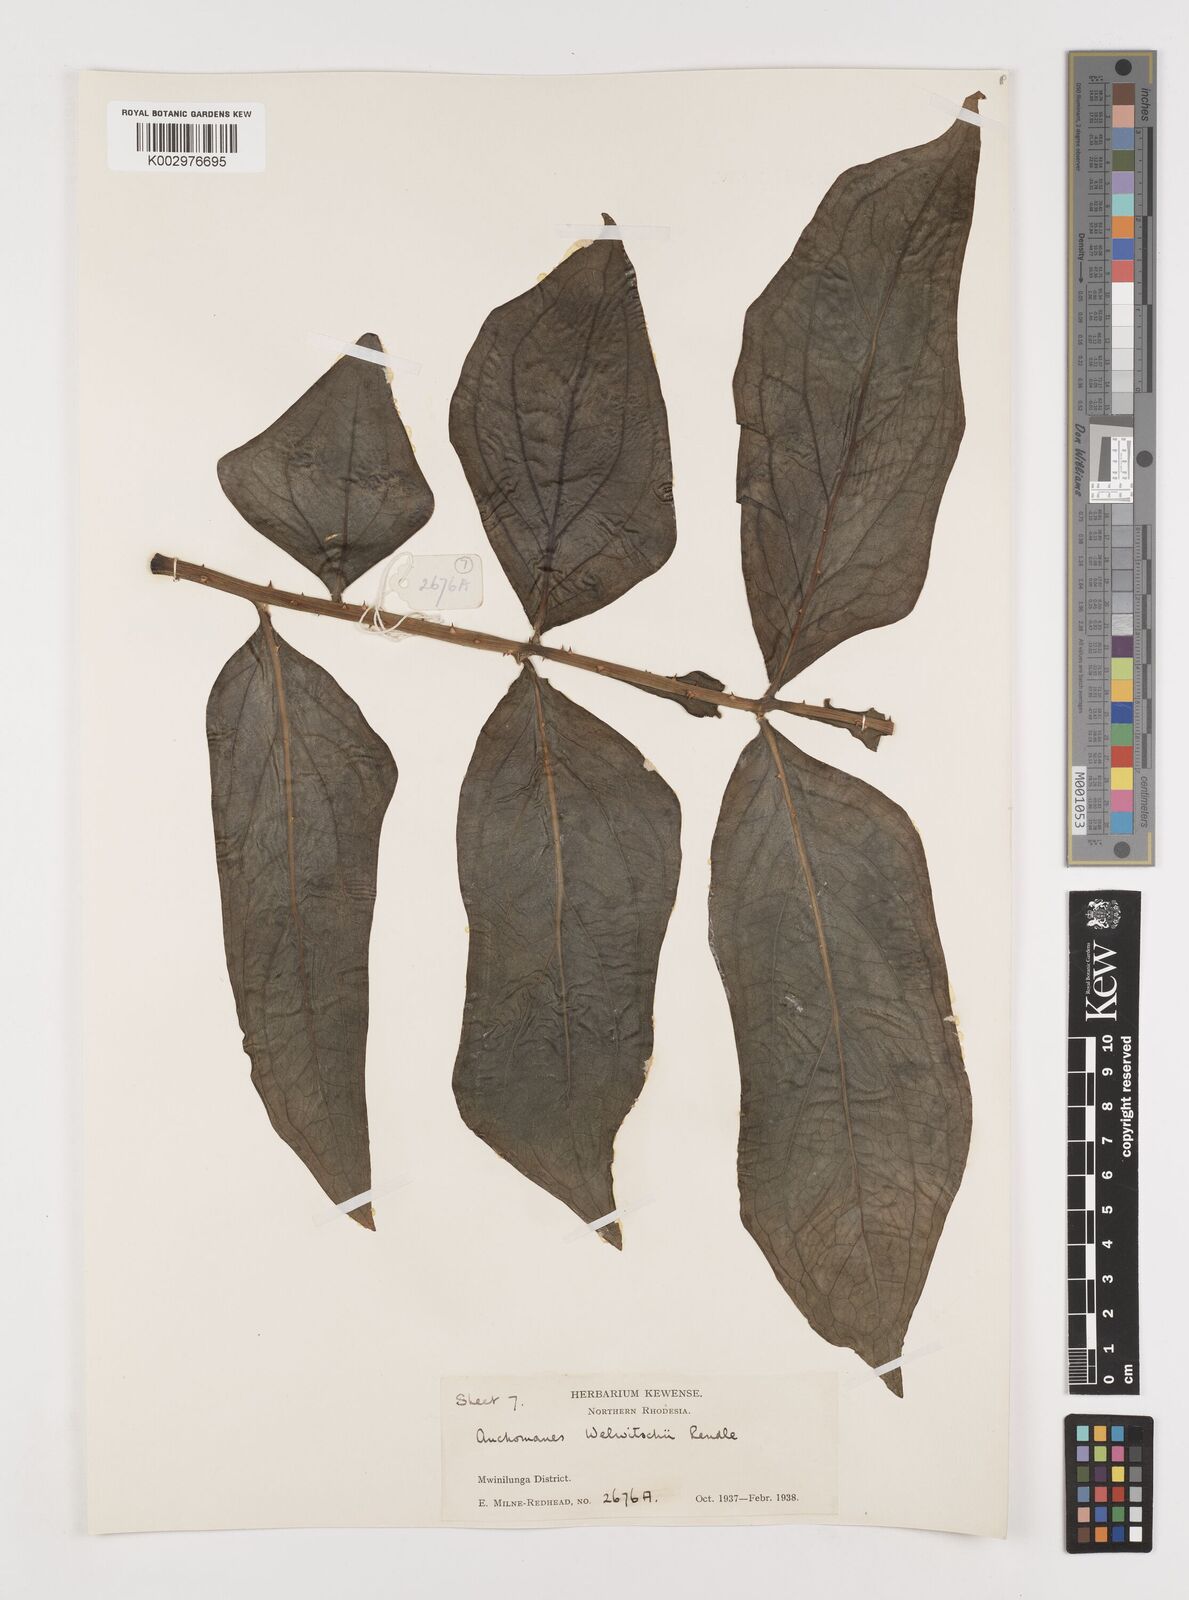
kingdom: Plantae
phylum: Tracheophyta
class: Liliopsida
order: Alismatales
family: Araceae
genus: Anchomanes
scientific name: Anchomanes difformis
